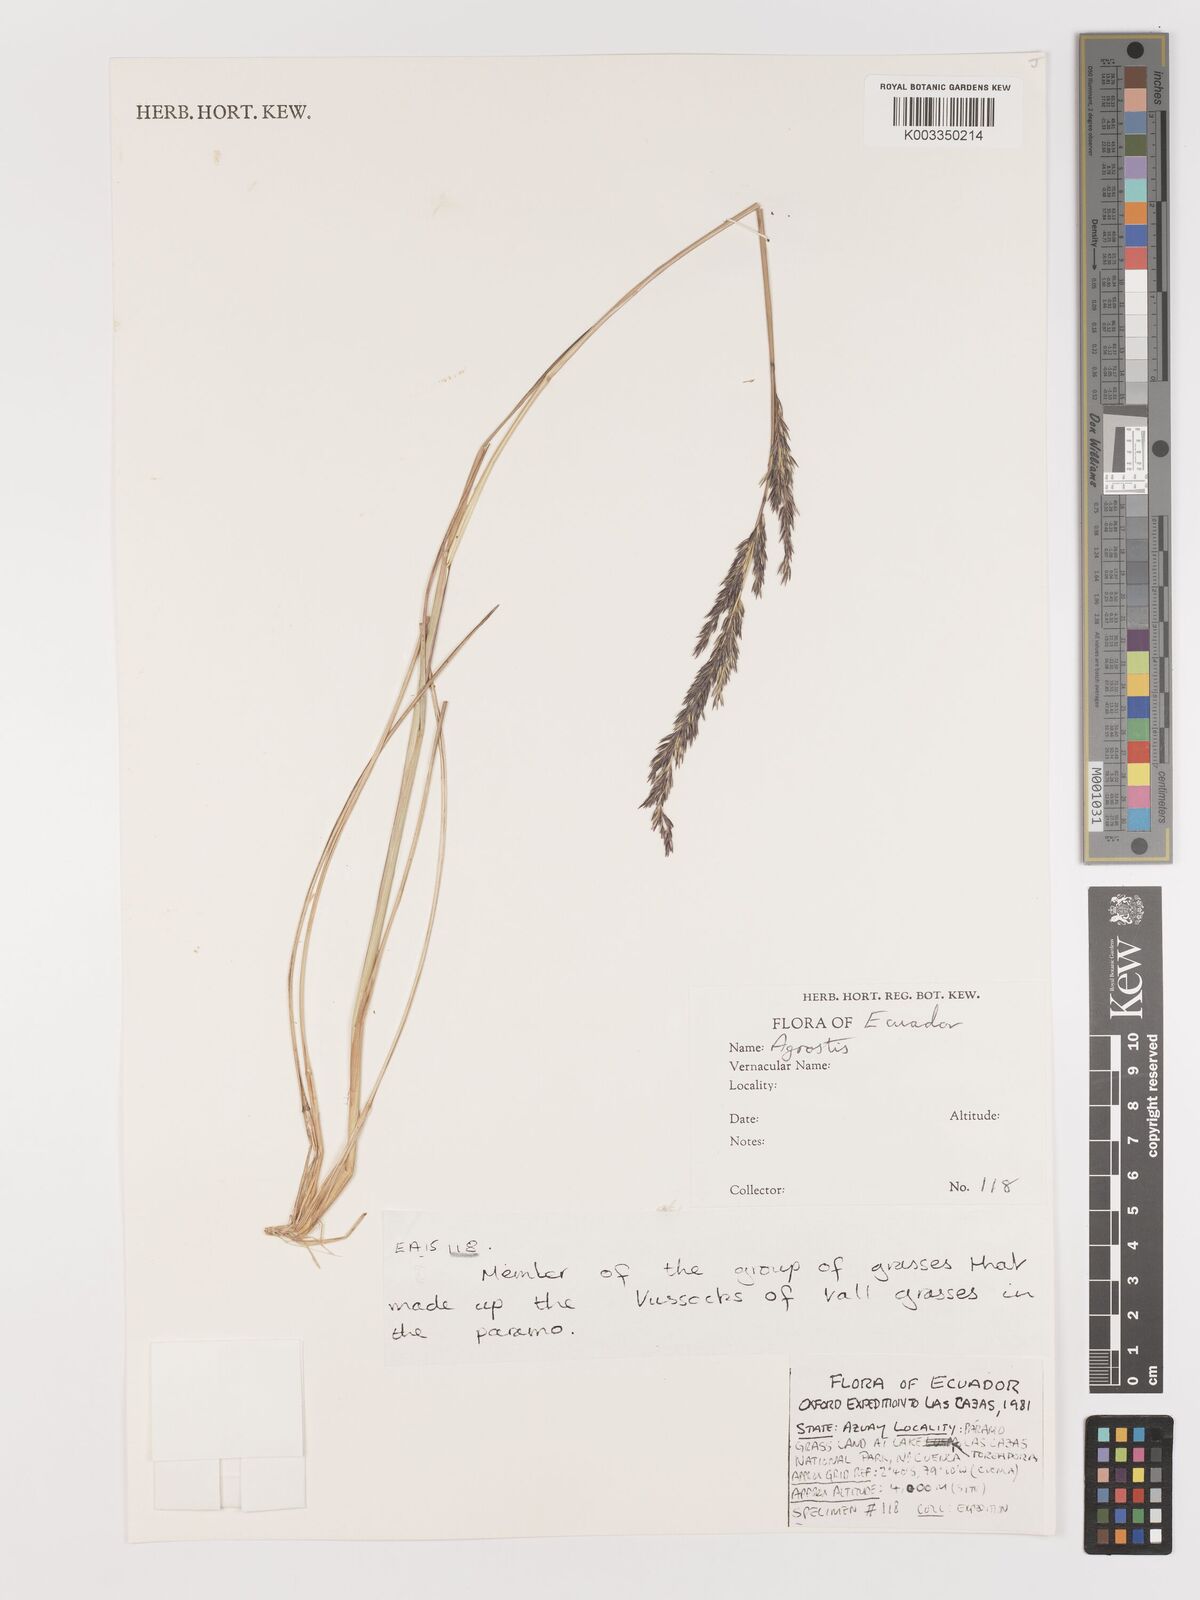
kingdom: Plantae
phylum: Tracheophyta
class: Liliopsida
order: Poales
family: Poaceae
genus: Agrostis
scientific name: Agrostis
